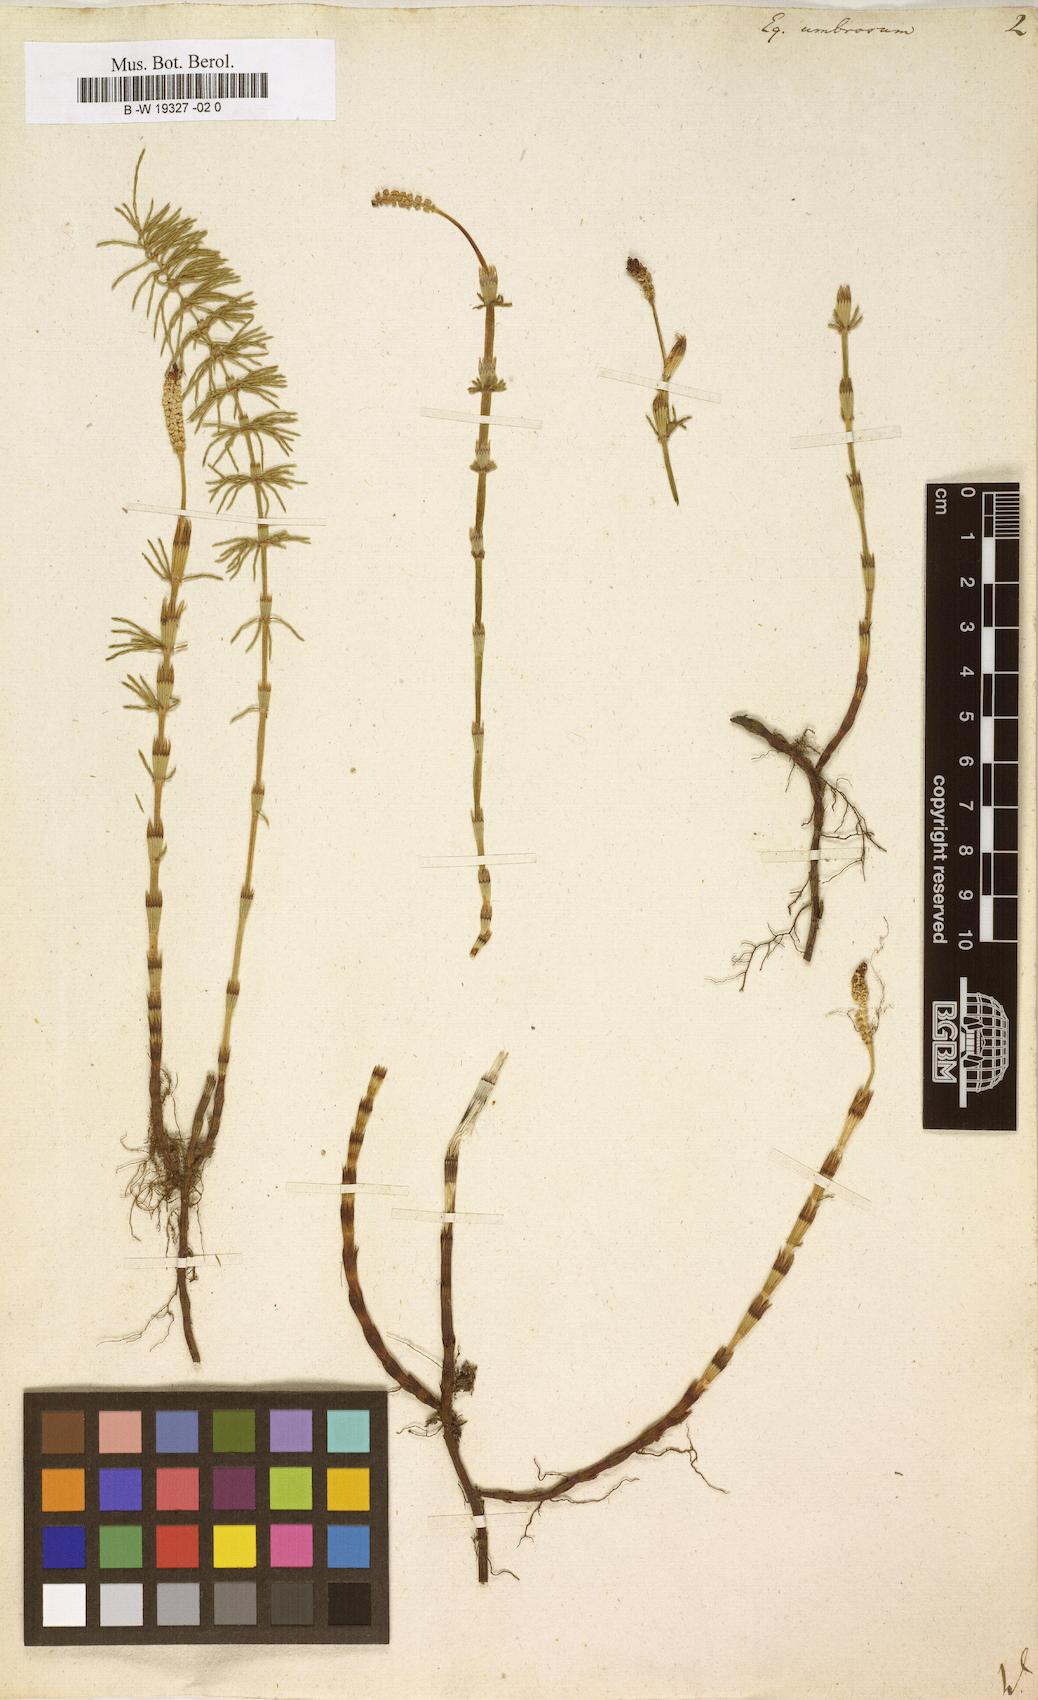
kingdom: Plantae
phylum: Tracheophyta
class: Polypodiopsida
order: Equisetales
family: Equisetaceae
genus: Equisetum
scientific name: Equisetum pratense
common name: Meadow horsetail
